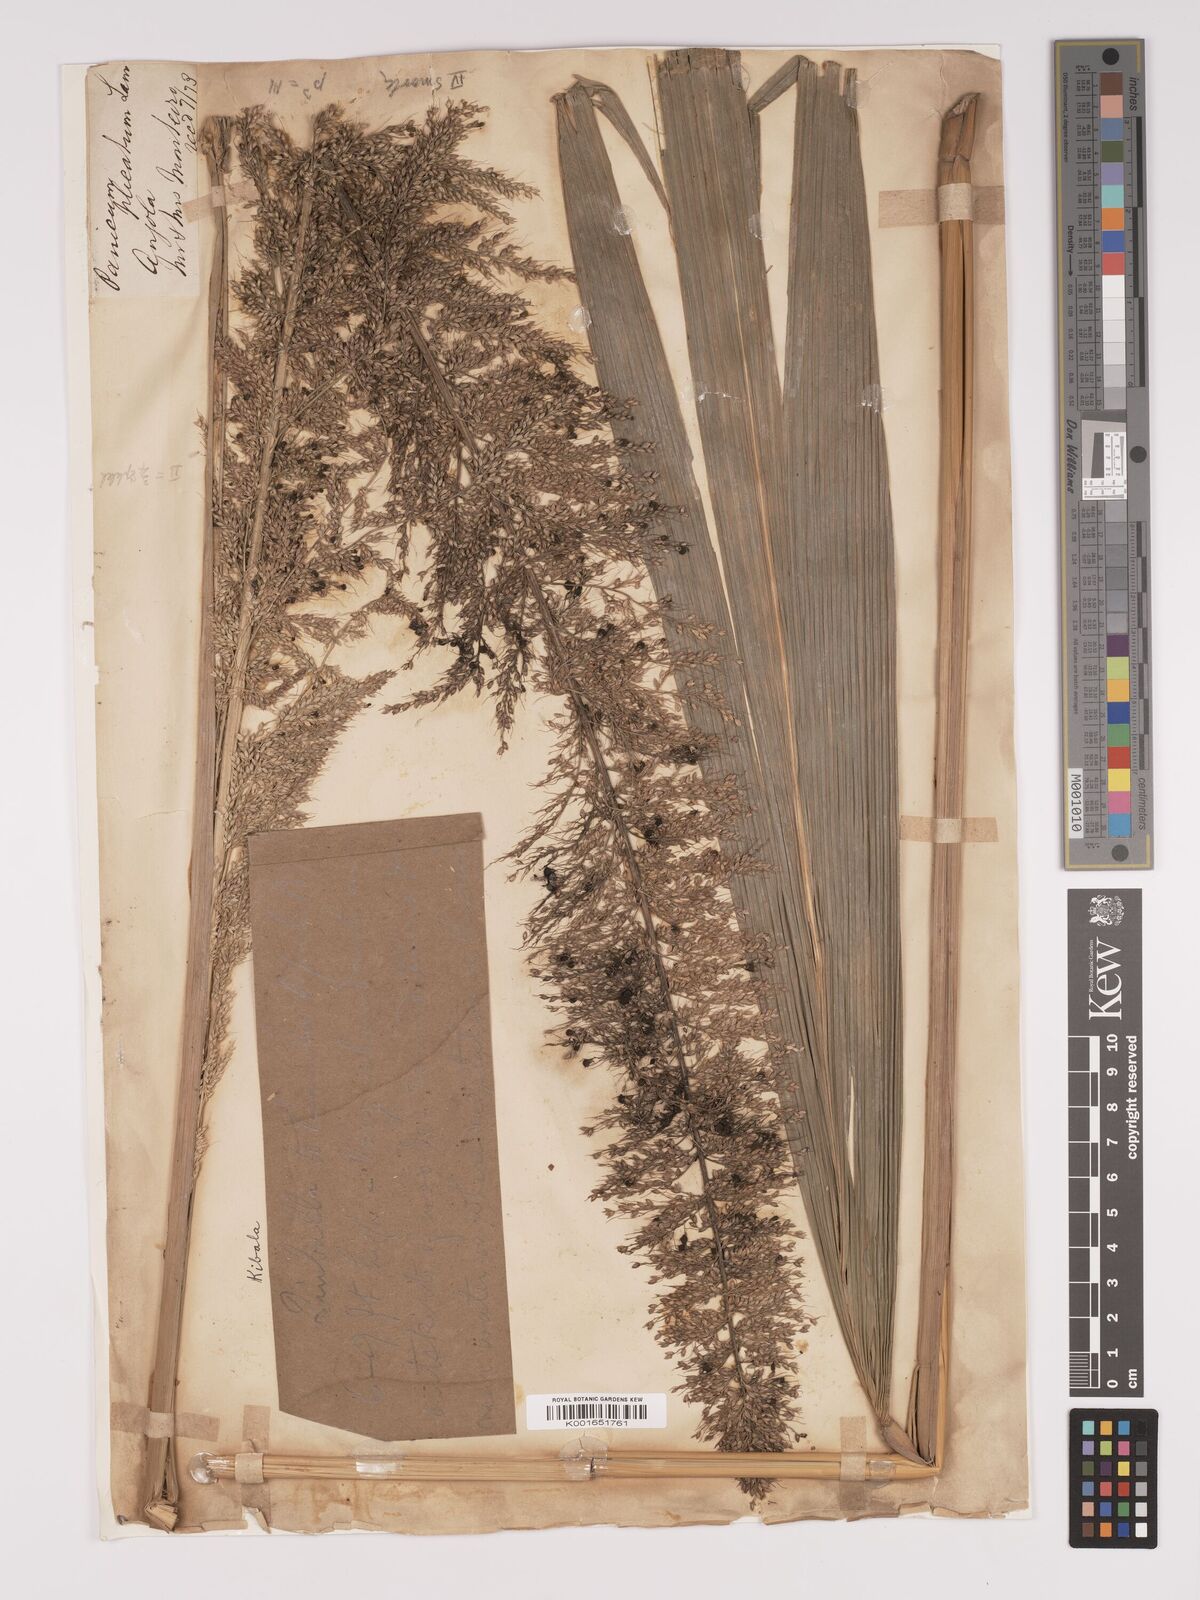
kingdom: Plantae
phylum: Tracheophyta
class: Liliopsida
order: Poales
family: Poaceae
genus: Setaria
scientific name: Setaria megaphylla
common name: Bigleaf bristlegrass
